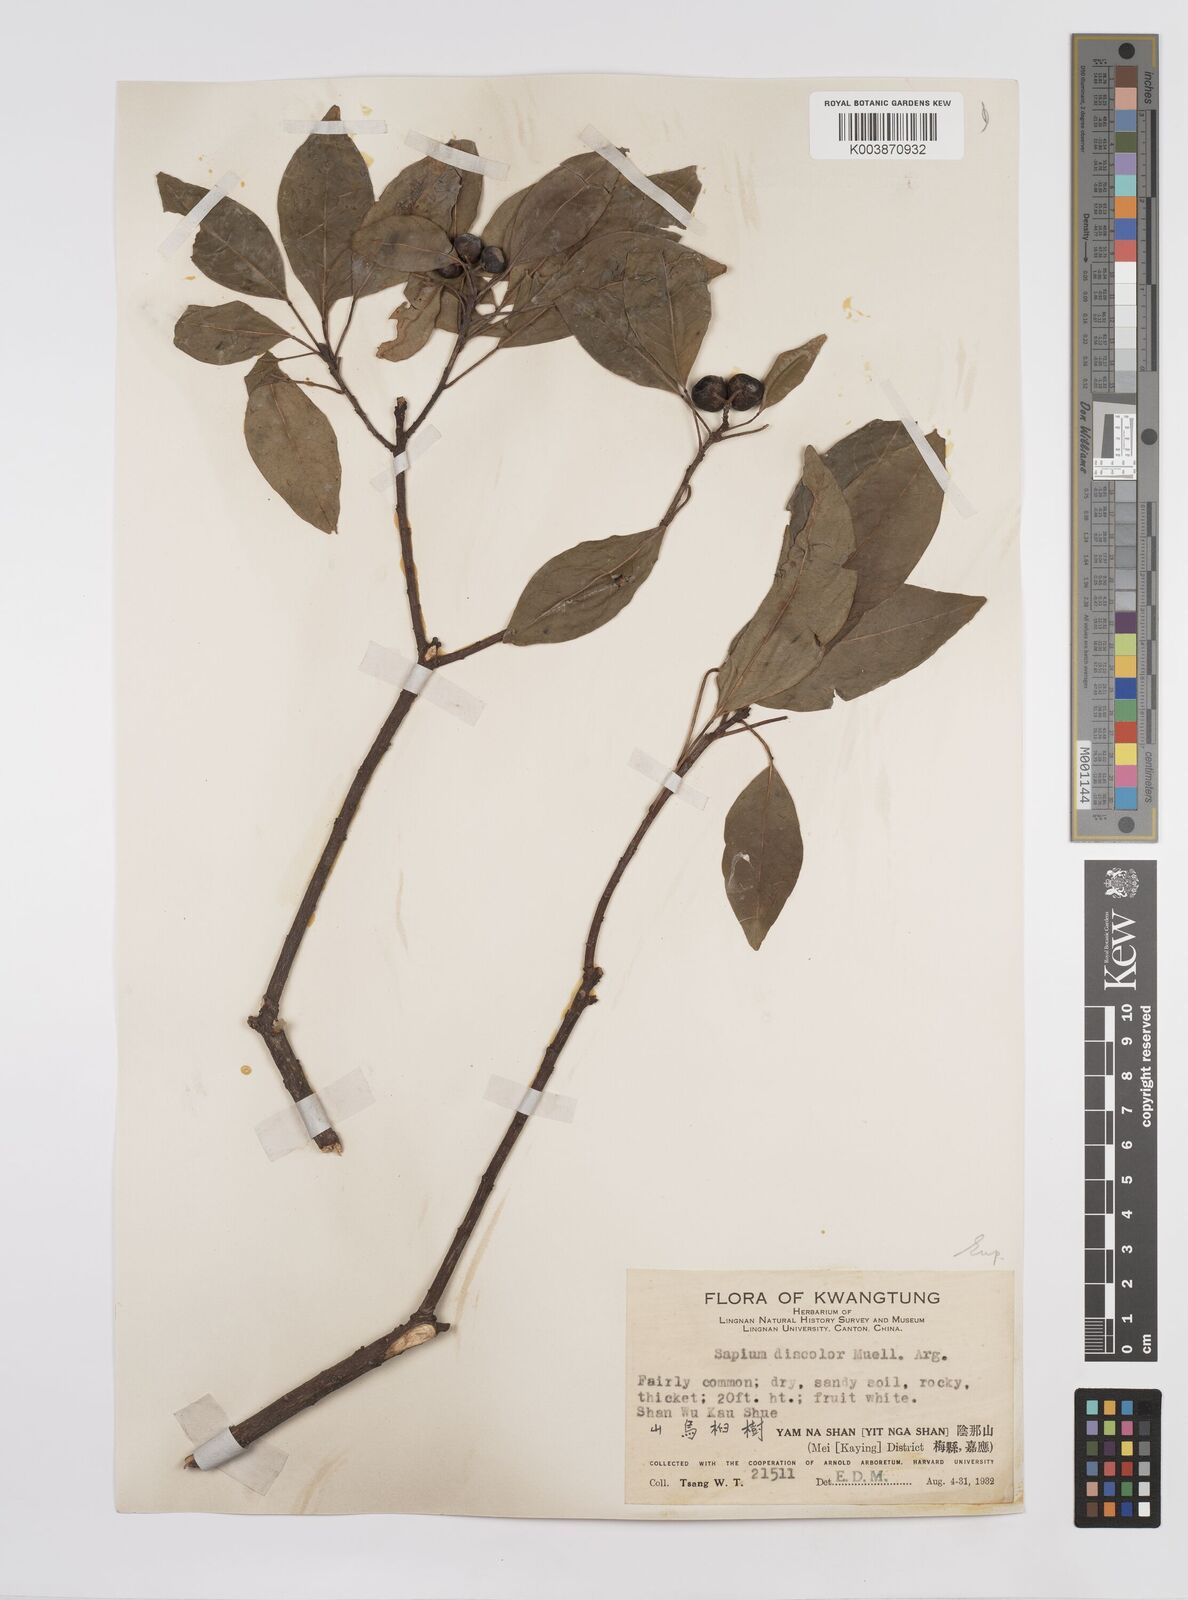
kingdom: Plantae
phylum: Tracheophyta
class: Magnoliopsida
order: Malpighiales
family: Euphorbiaceae
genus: Triadica
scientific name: Triadica cochinchinensis
